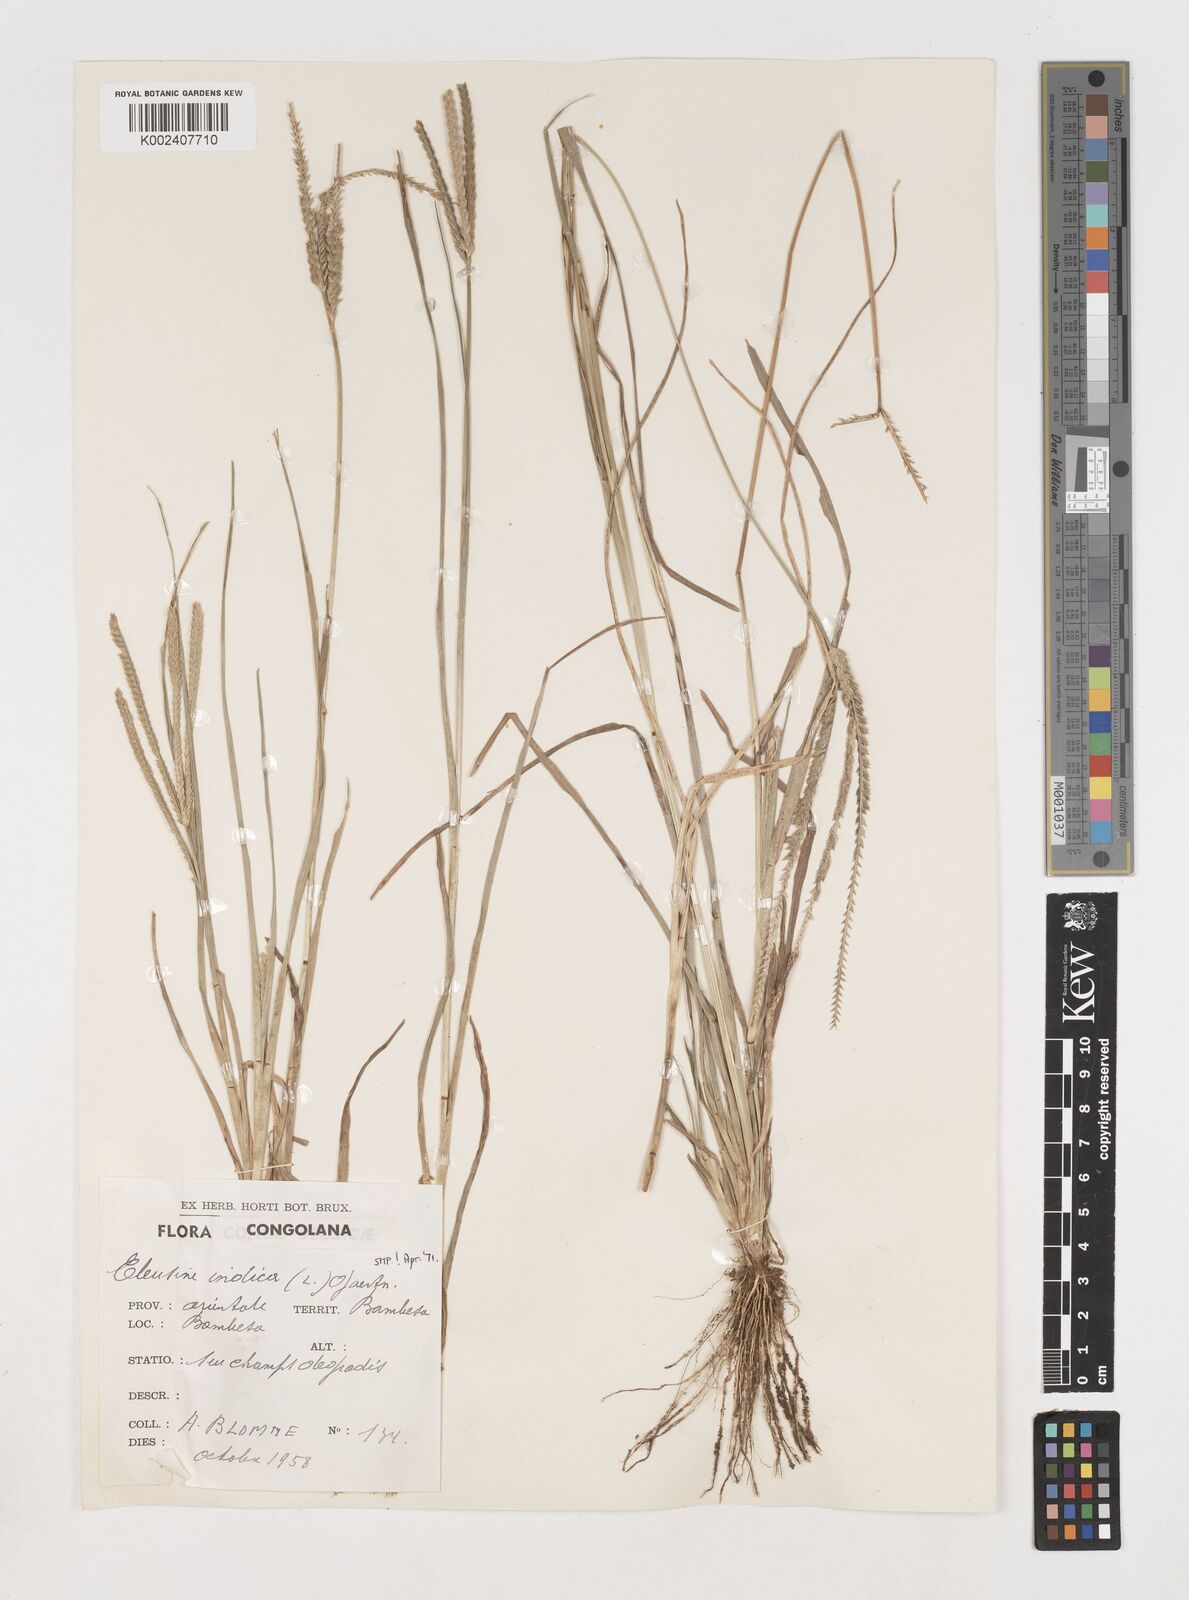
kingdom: Plantae
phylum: Tracheophyta
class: Liliopsida
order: Poales
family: Poaceae
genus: Eleusine
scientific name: Eleusine indica
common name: Yard-grass
